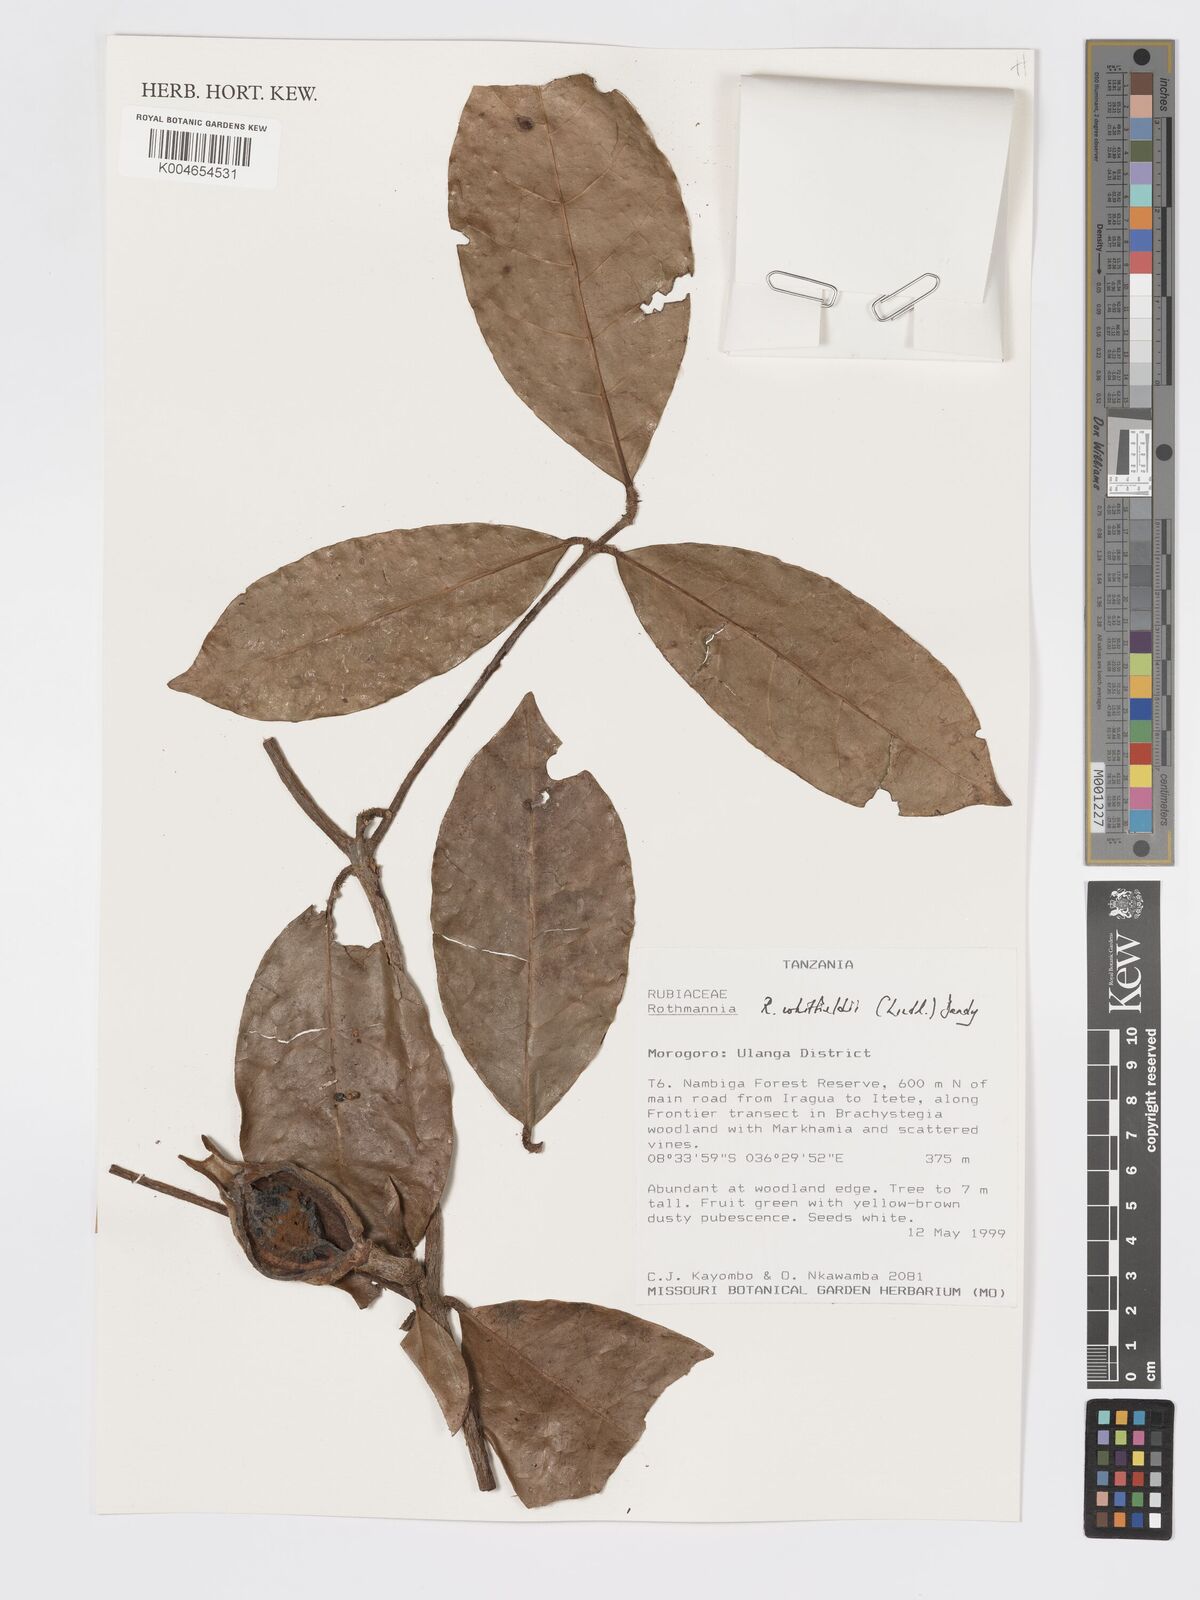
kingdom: Plantae
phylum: Tracheophyta
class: Magnoliopsida
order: Gentianales
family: Rubiaceae
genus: Rothmannia
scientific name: Rothmannia whitfieldii
